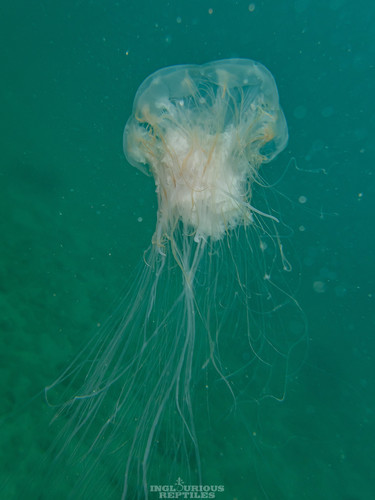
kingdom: Animalia
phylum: Cnidaria
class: Scyphozoa
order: Semaeostomeae
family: Cyaneidae
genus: Cyanea
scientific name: Cyanea nozakii
